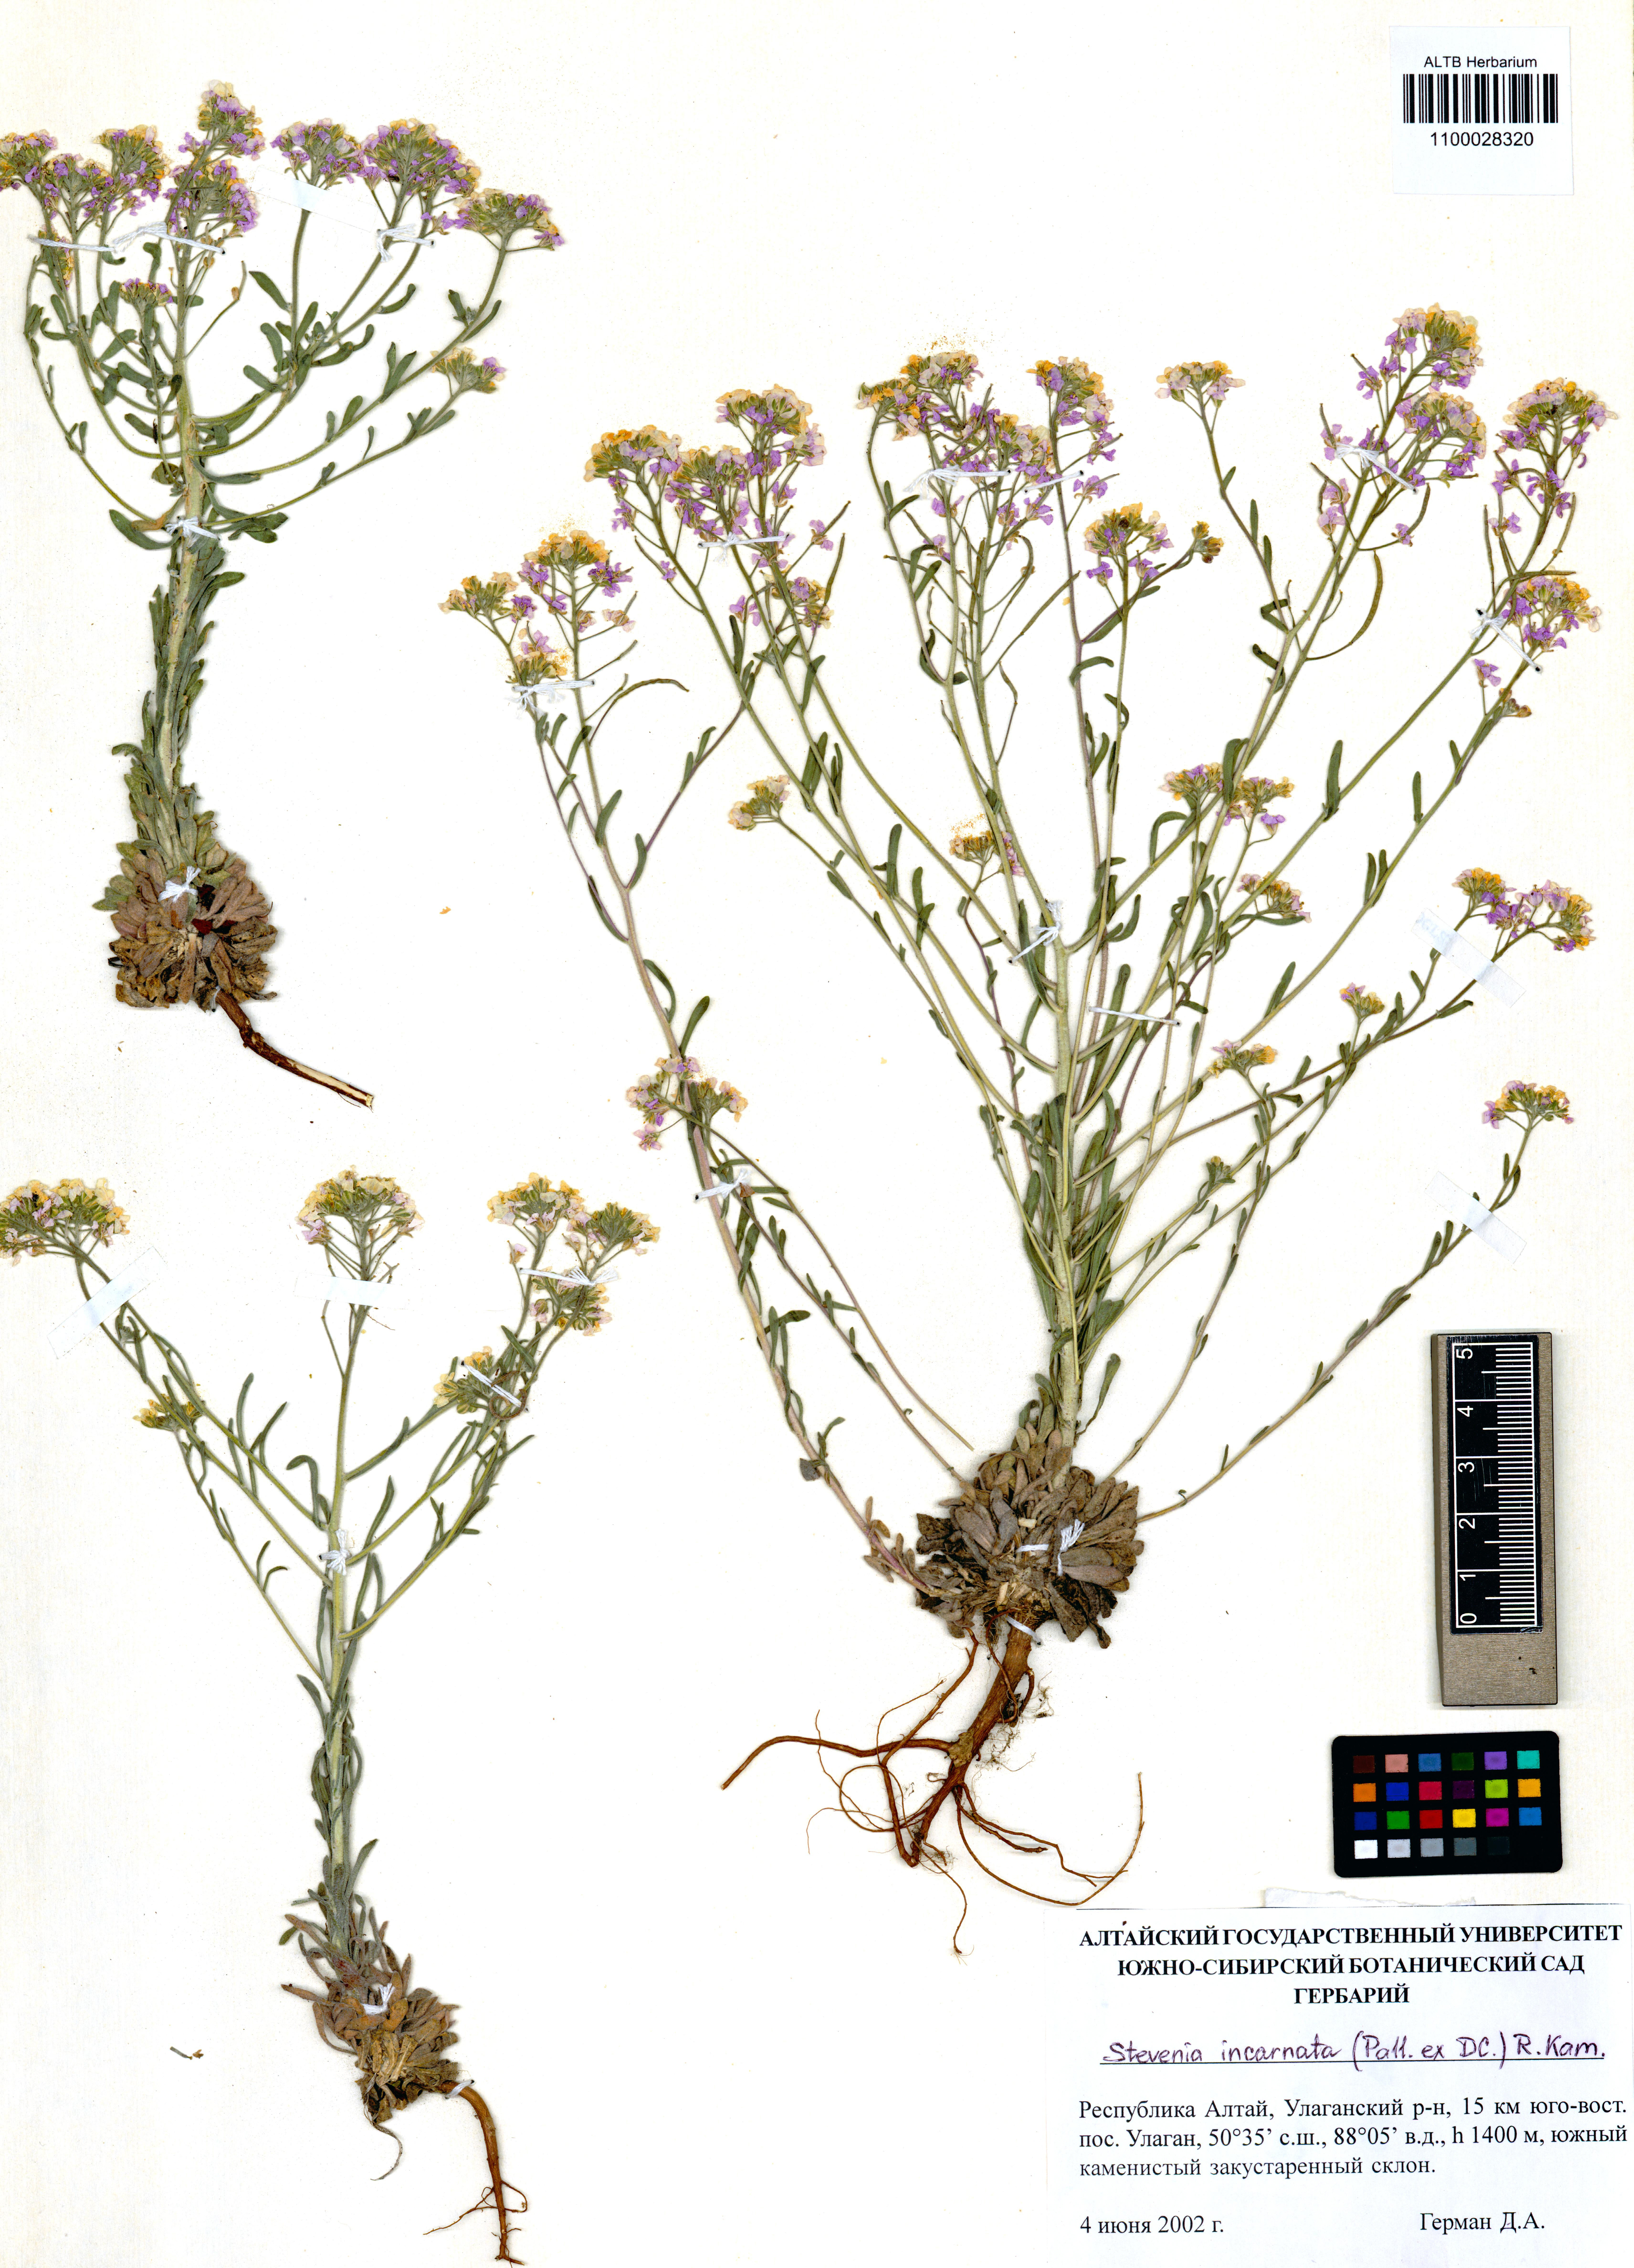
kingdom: Plantae
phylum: Tracheophyta
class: Magnoliopsida
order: Brassicales
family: Brassicaceae
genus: Stevenia
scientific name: Stevenia incarnata
